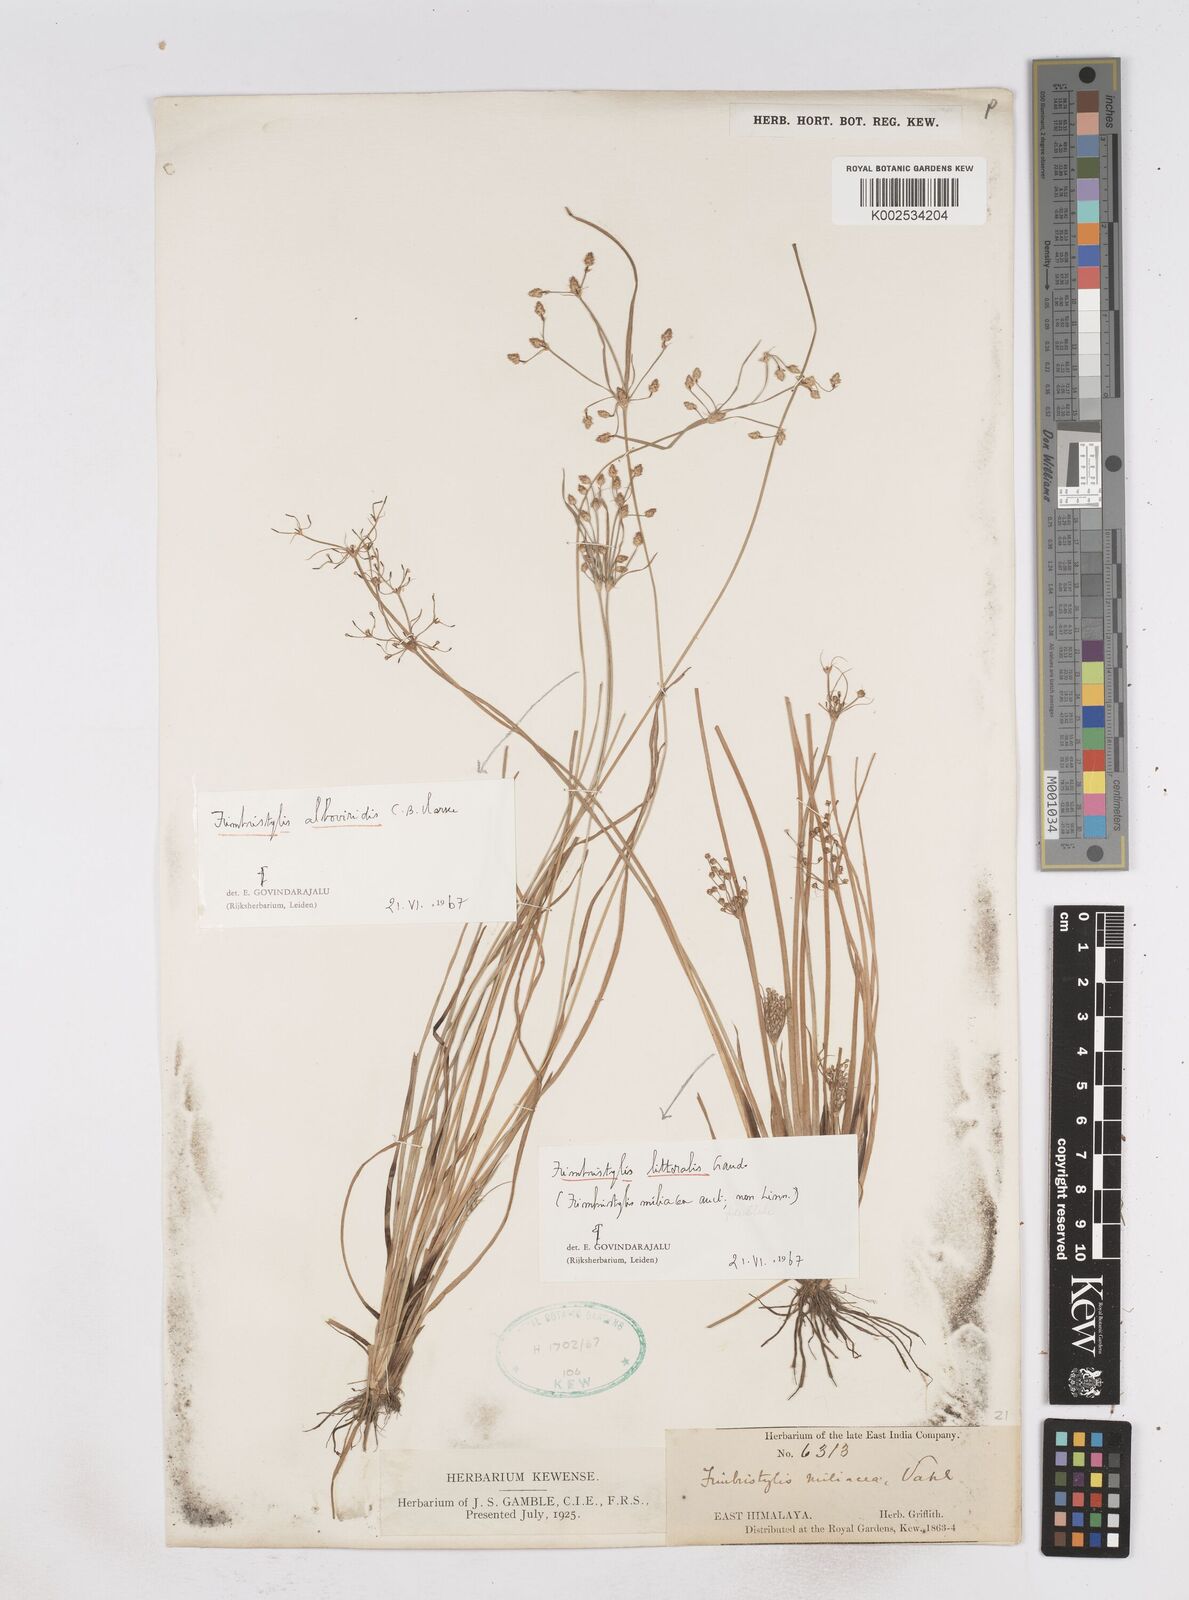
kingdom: Plantae
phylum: Tracheophyta
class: Liliopsida
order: Poales
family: Cyperaceae
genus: Fimbristylis
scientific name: Fimbristylis alboviridis
